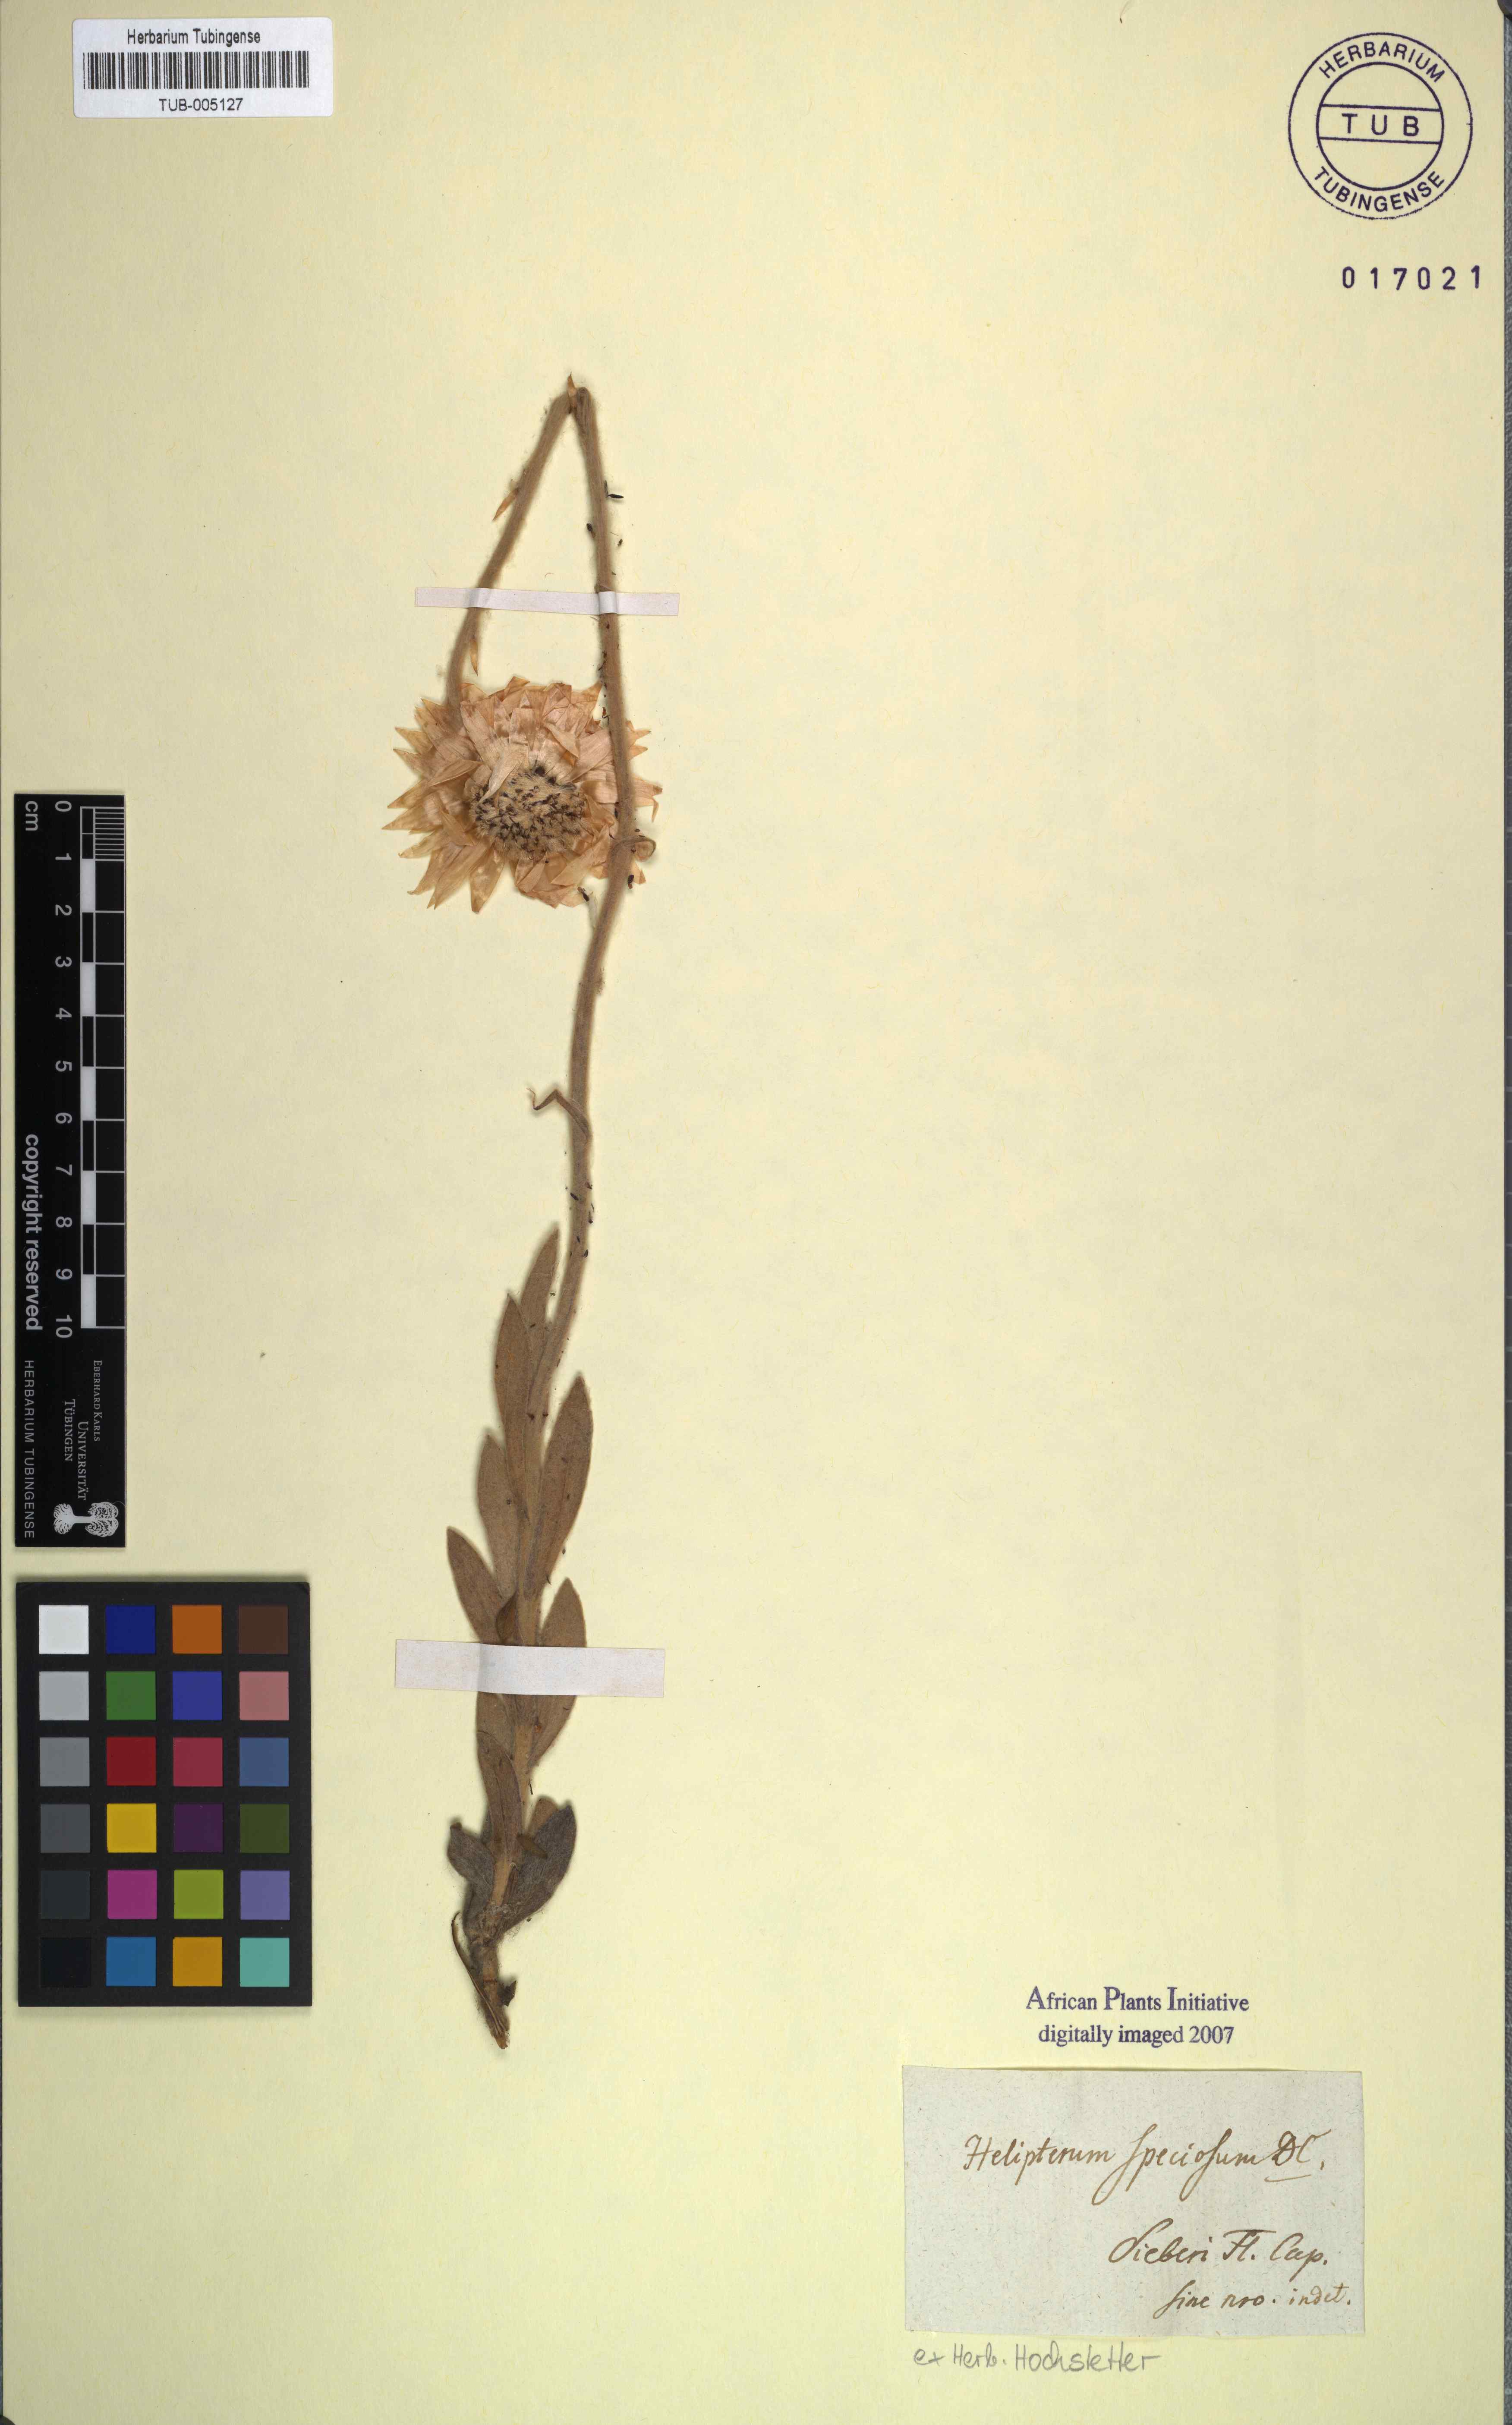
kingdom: Plantae
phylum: Tracheophyta
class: Magnoliopsida
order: Asterales
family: Asteraceae
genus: Syncarpha
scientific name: Syncarpha speciosissima
